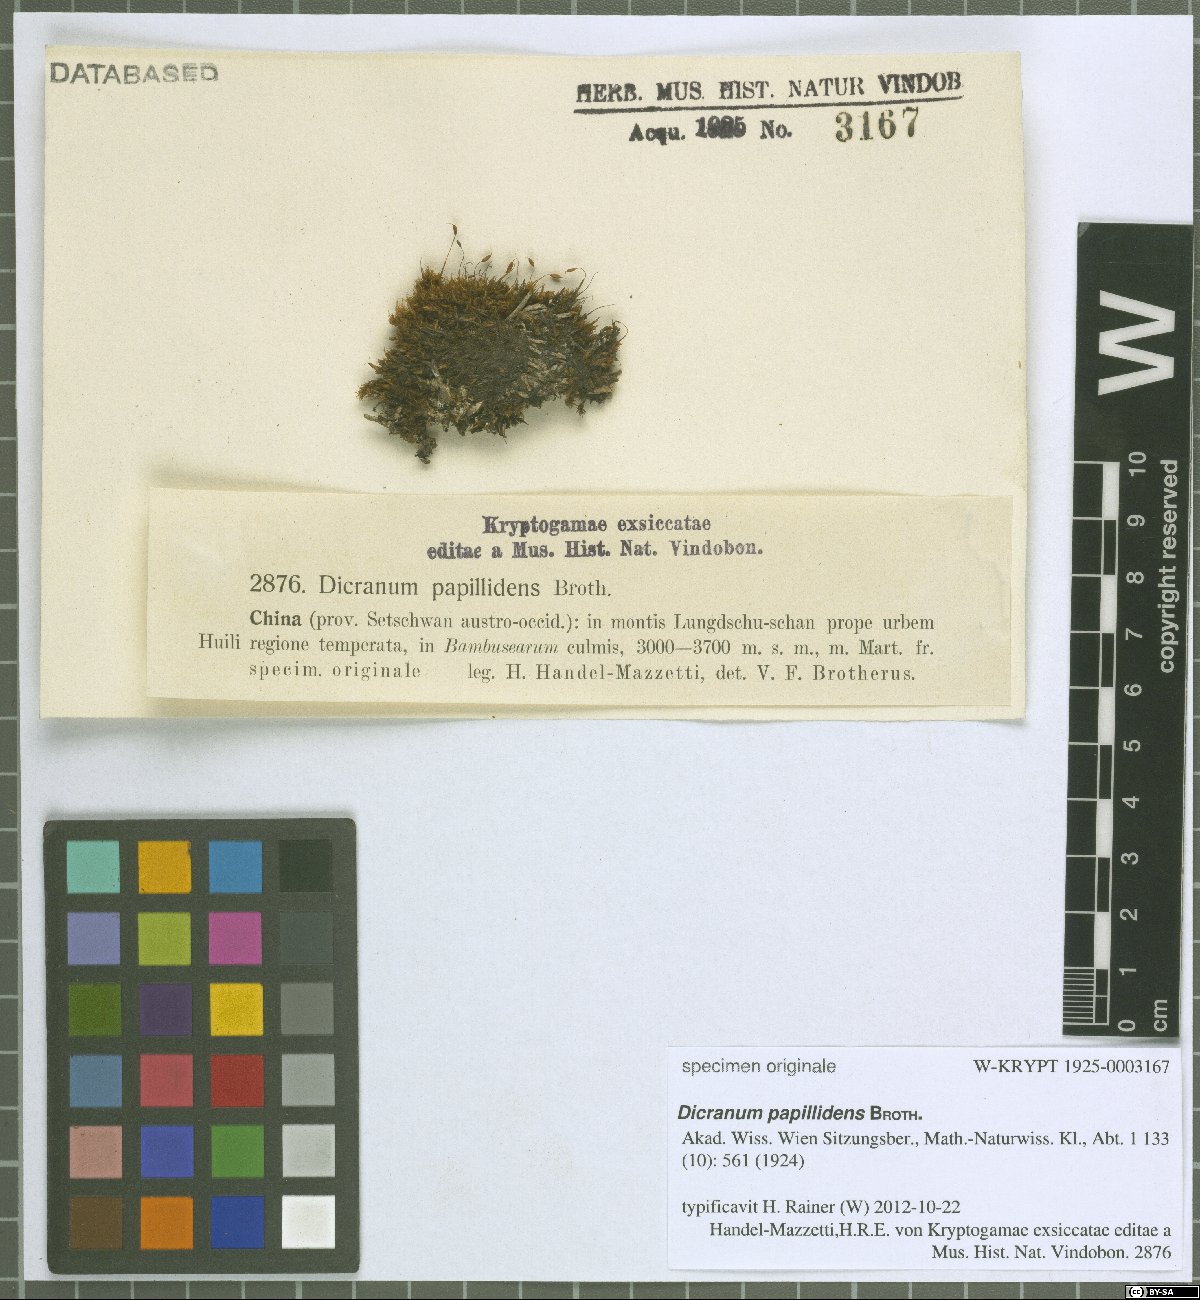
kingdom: Plantae
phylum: Bryophyta
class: Bryopsida
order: Dicranales
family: Dicranaceae
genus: Dicranum
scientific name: Dicranum papillidens
